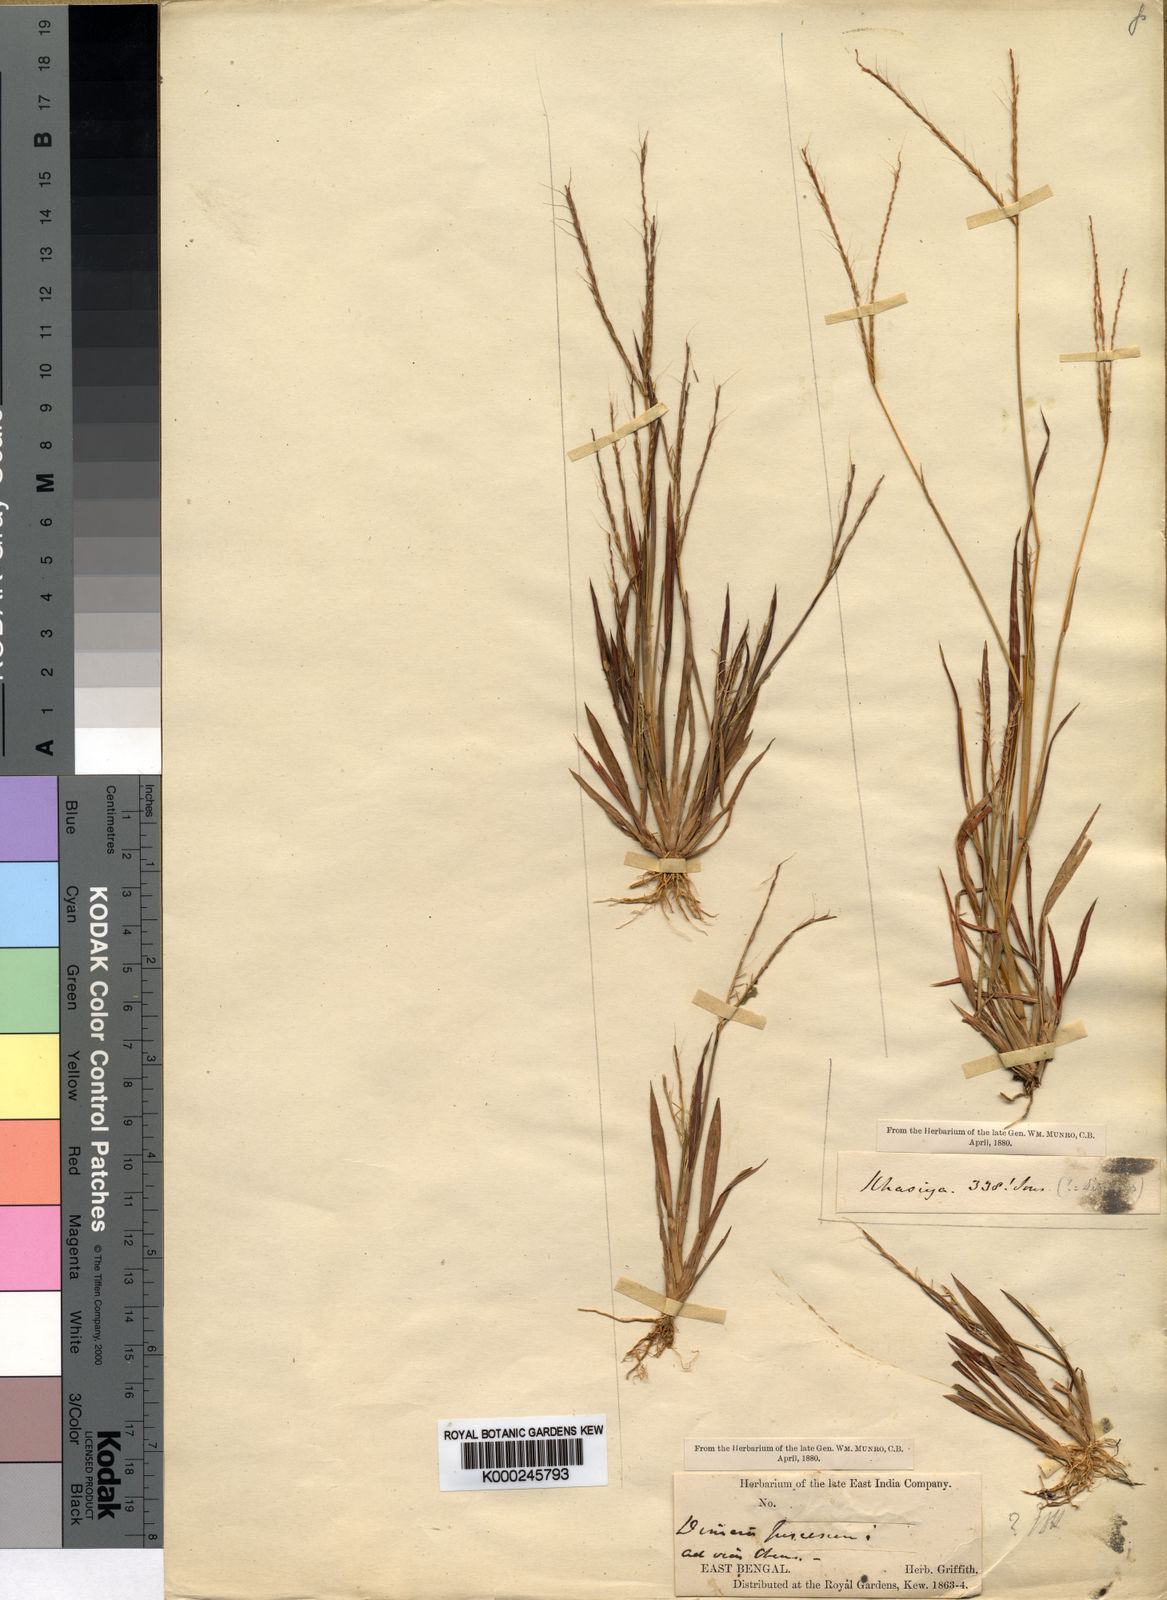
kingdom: Plantae
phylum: Tracheophyta
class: Liliopsida
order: Poales
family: Poaceae
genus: Dimeria
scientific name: Dimeria
